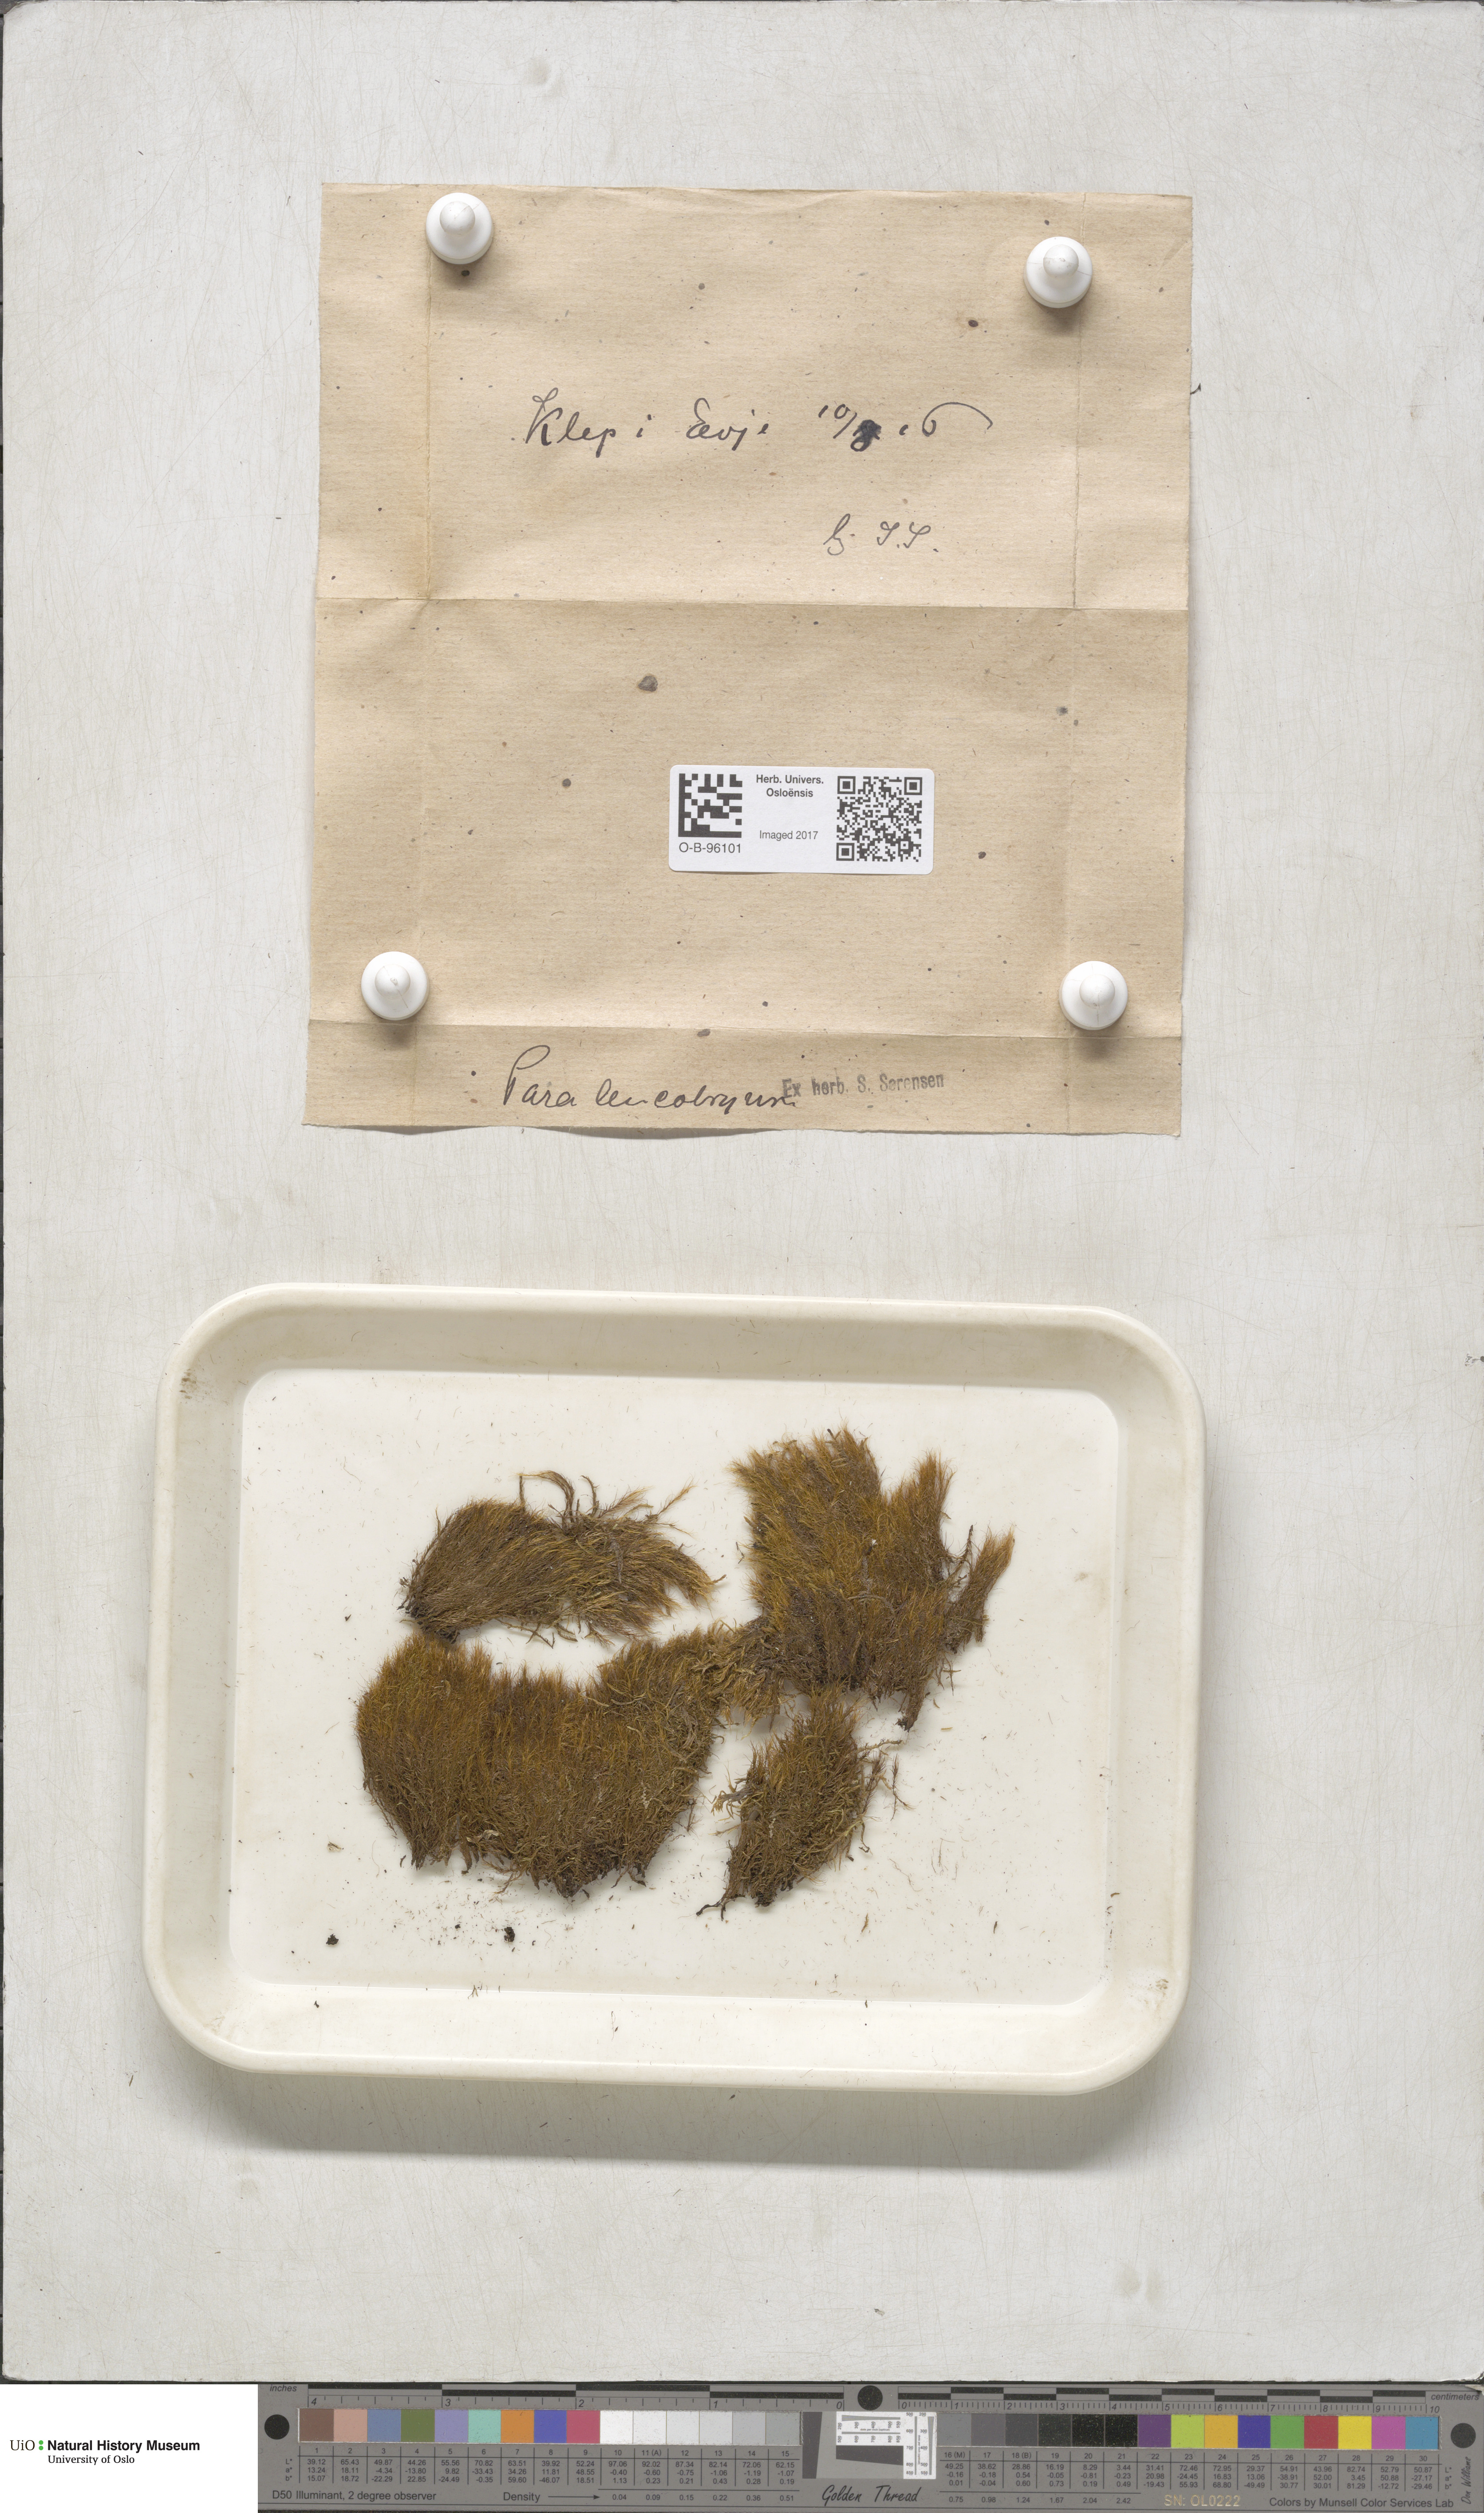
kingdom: Plantae
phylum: Bryophyta
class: Bryopsida
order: Dicranales
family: Dicranaceae
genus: Paraleucobryum
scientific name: Paraleucobryum longifolium
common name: Long-leaved fork moss
